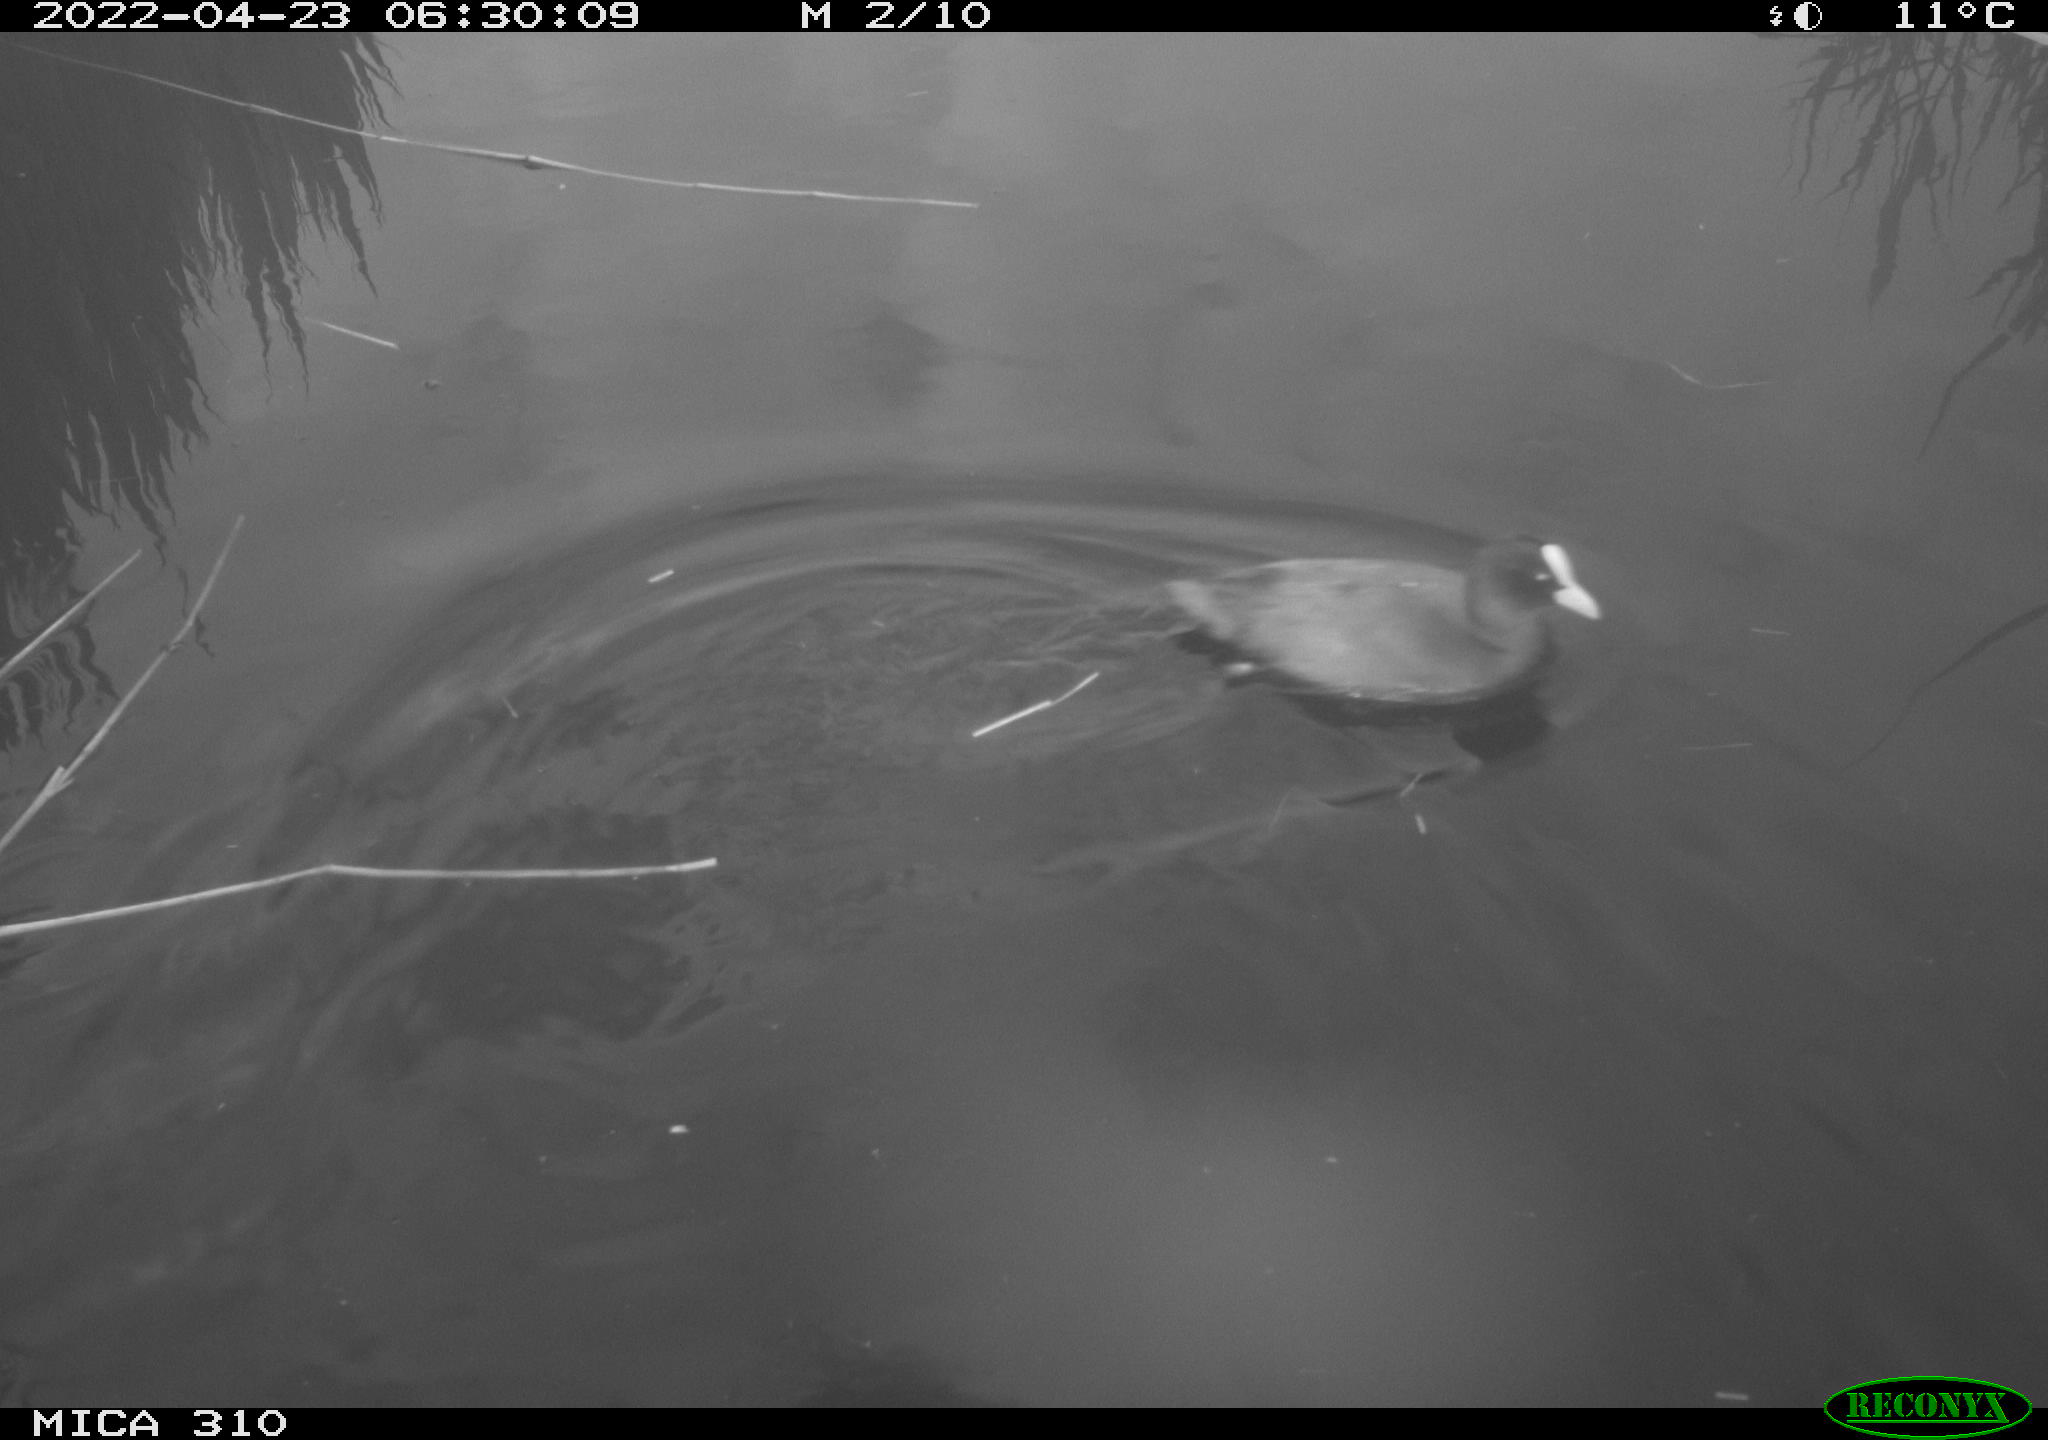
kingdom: Animalia
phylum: Chordata
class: Aves
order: Gruiformes
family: Rallidae
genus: Fulica
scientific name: Fulica atra
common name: Eurasian coot
